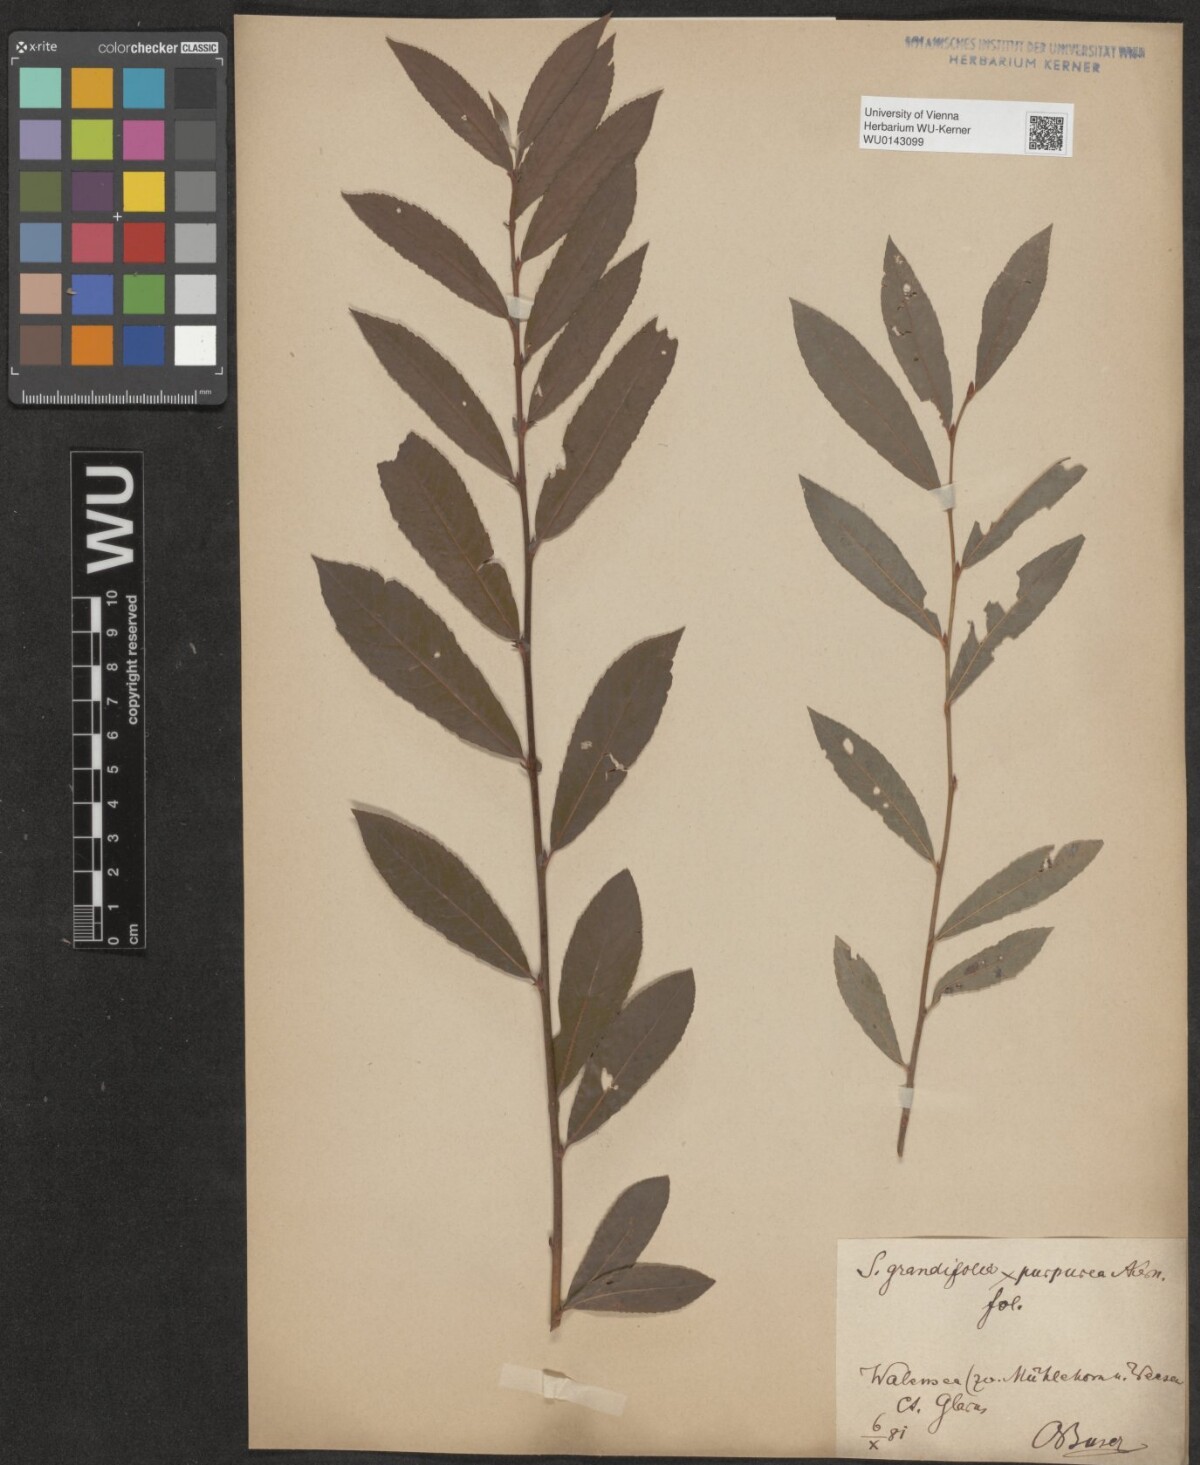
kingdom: Plantae
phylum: Tracheophyta
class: Magnoliopsida
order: Malpighiales
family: Salicaceae
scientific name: Salicaceae
